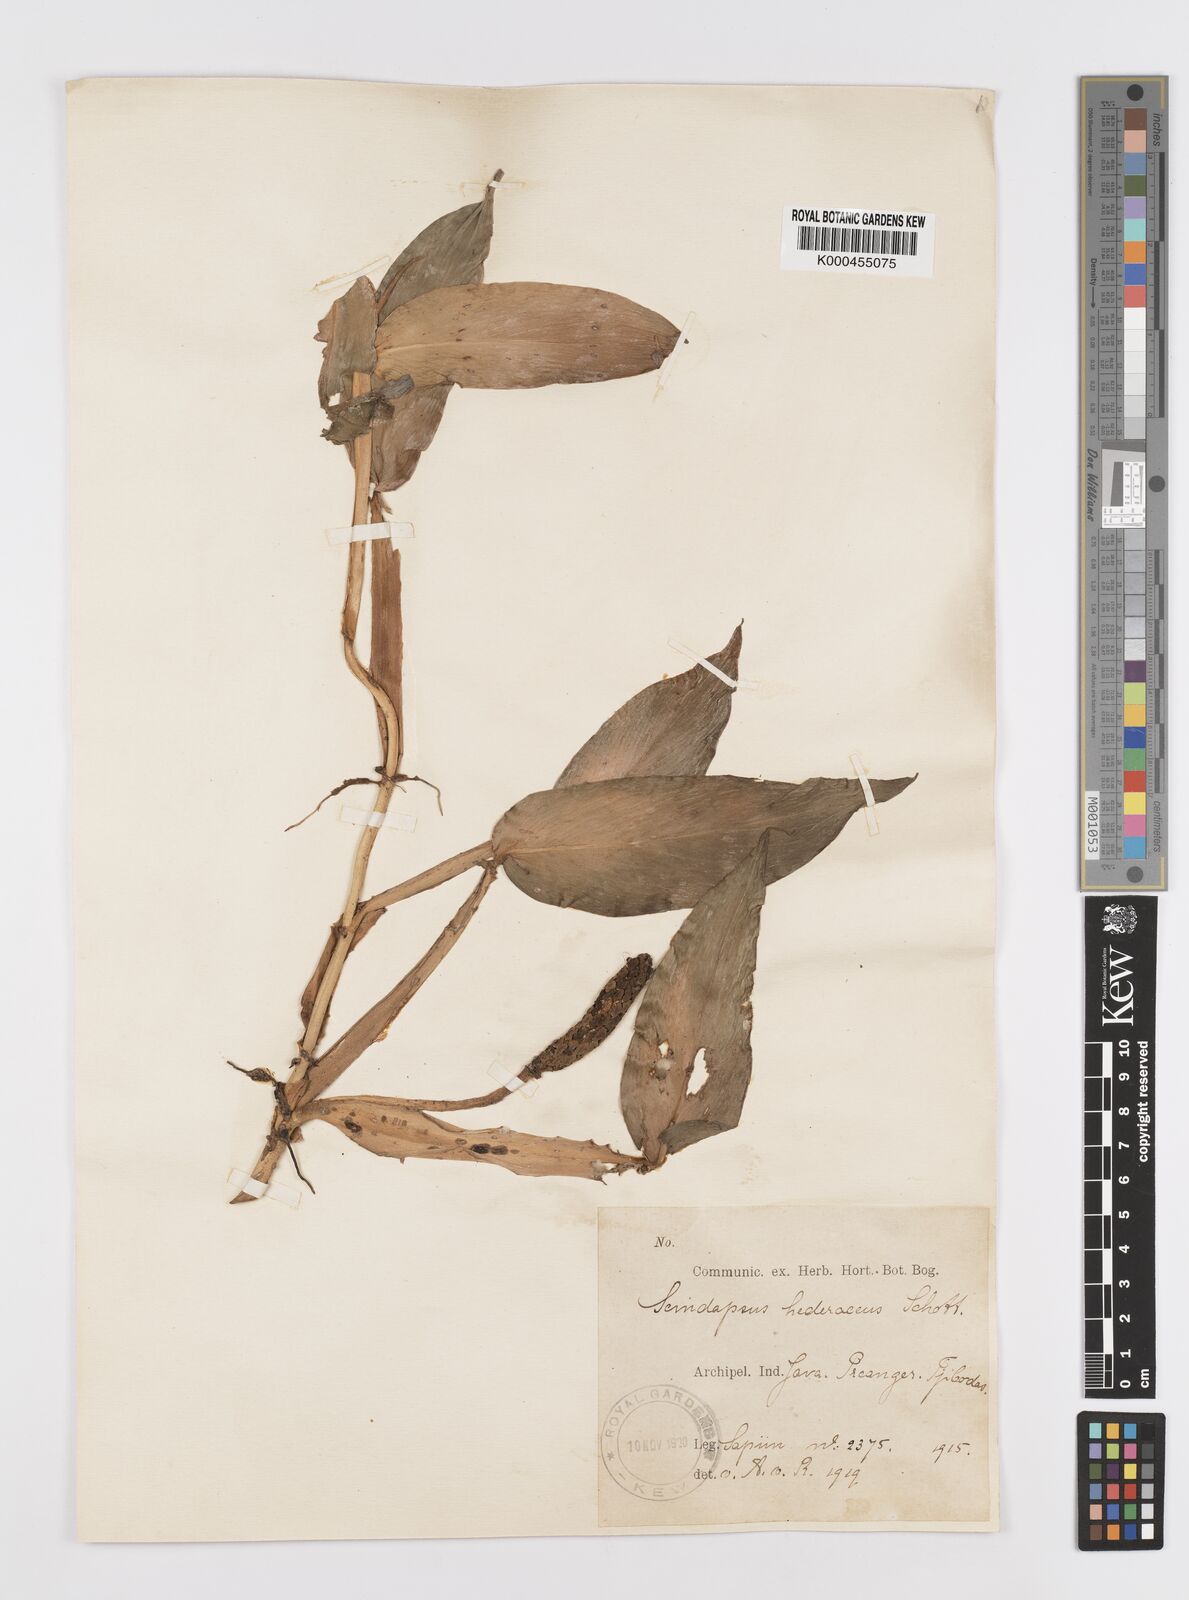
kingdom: Plantae
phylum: Tracheophyta
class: Liliopsida
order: Alismatales
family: Araceae
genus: Scindapsus
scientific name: Scindapsus hederaceus
